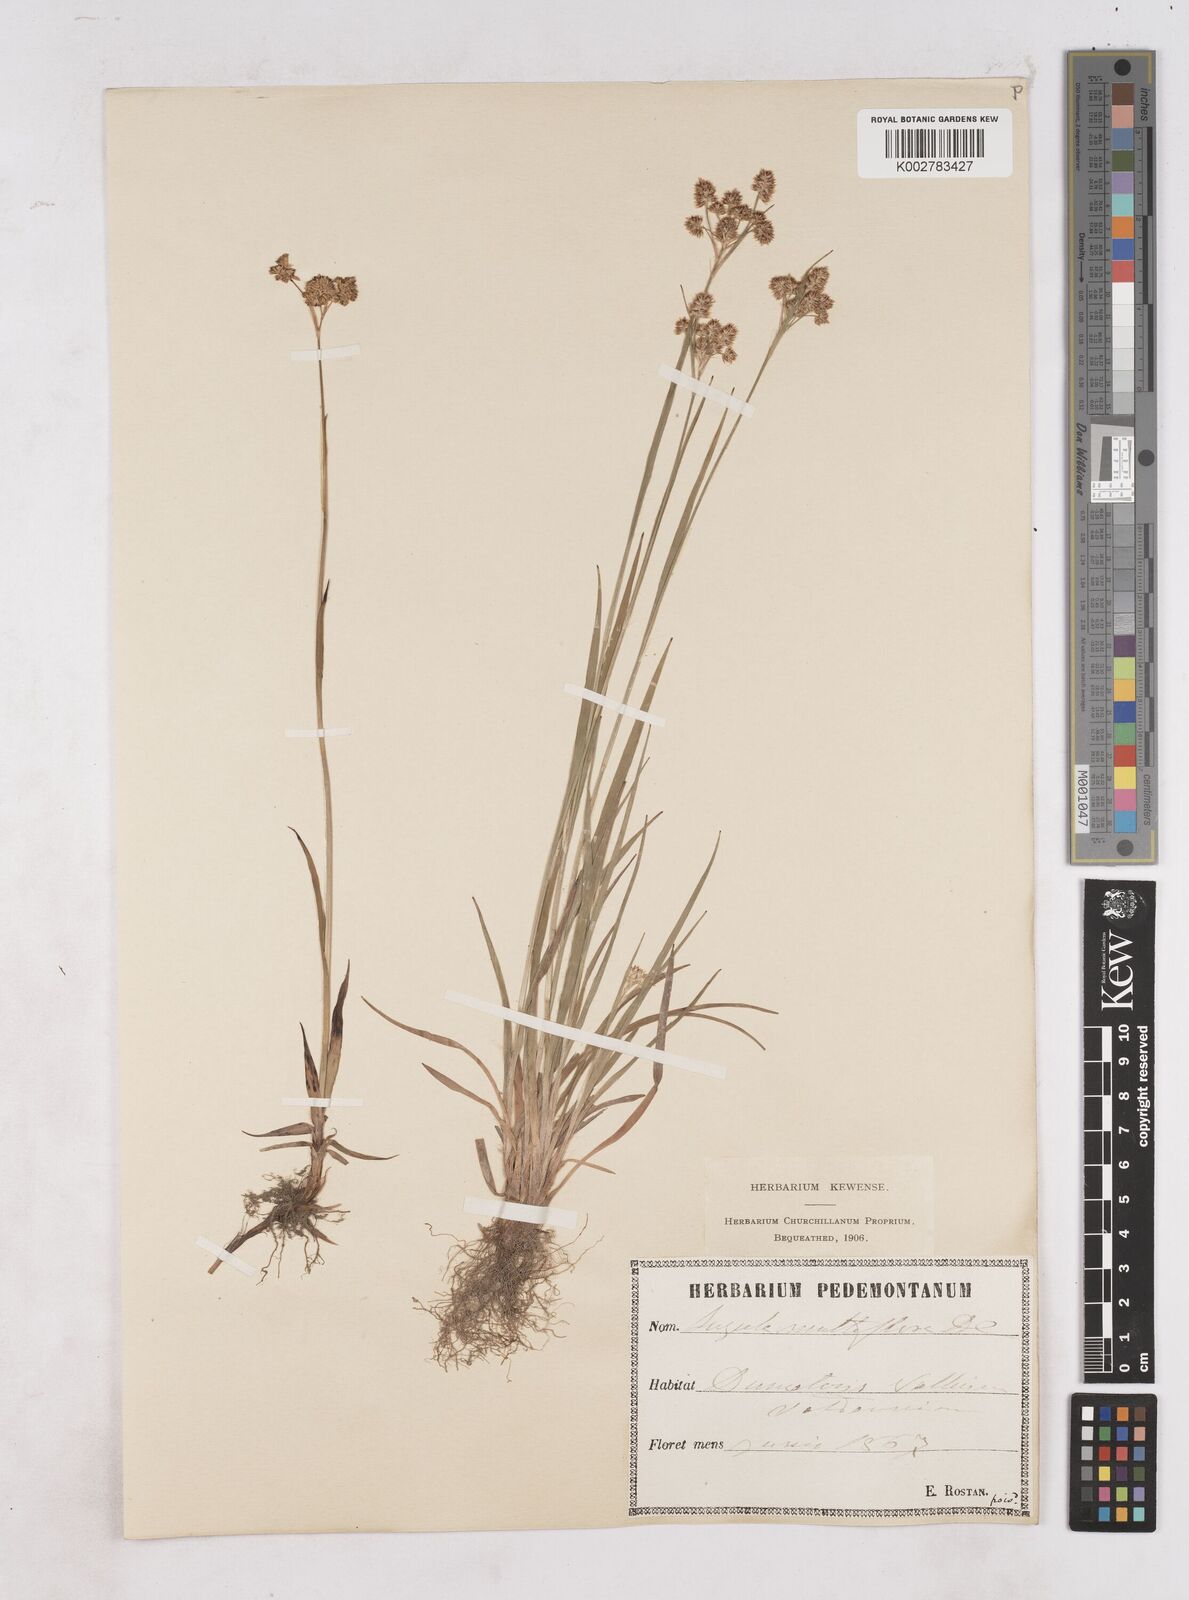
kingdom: Plantae
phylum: Tracheophyta
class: Liliopsida
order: Poales
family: Juncaceae
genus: Luzula
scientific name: Luzula multiflora
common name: Heath wood-rush
